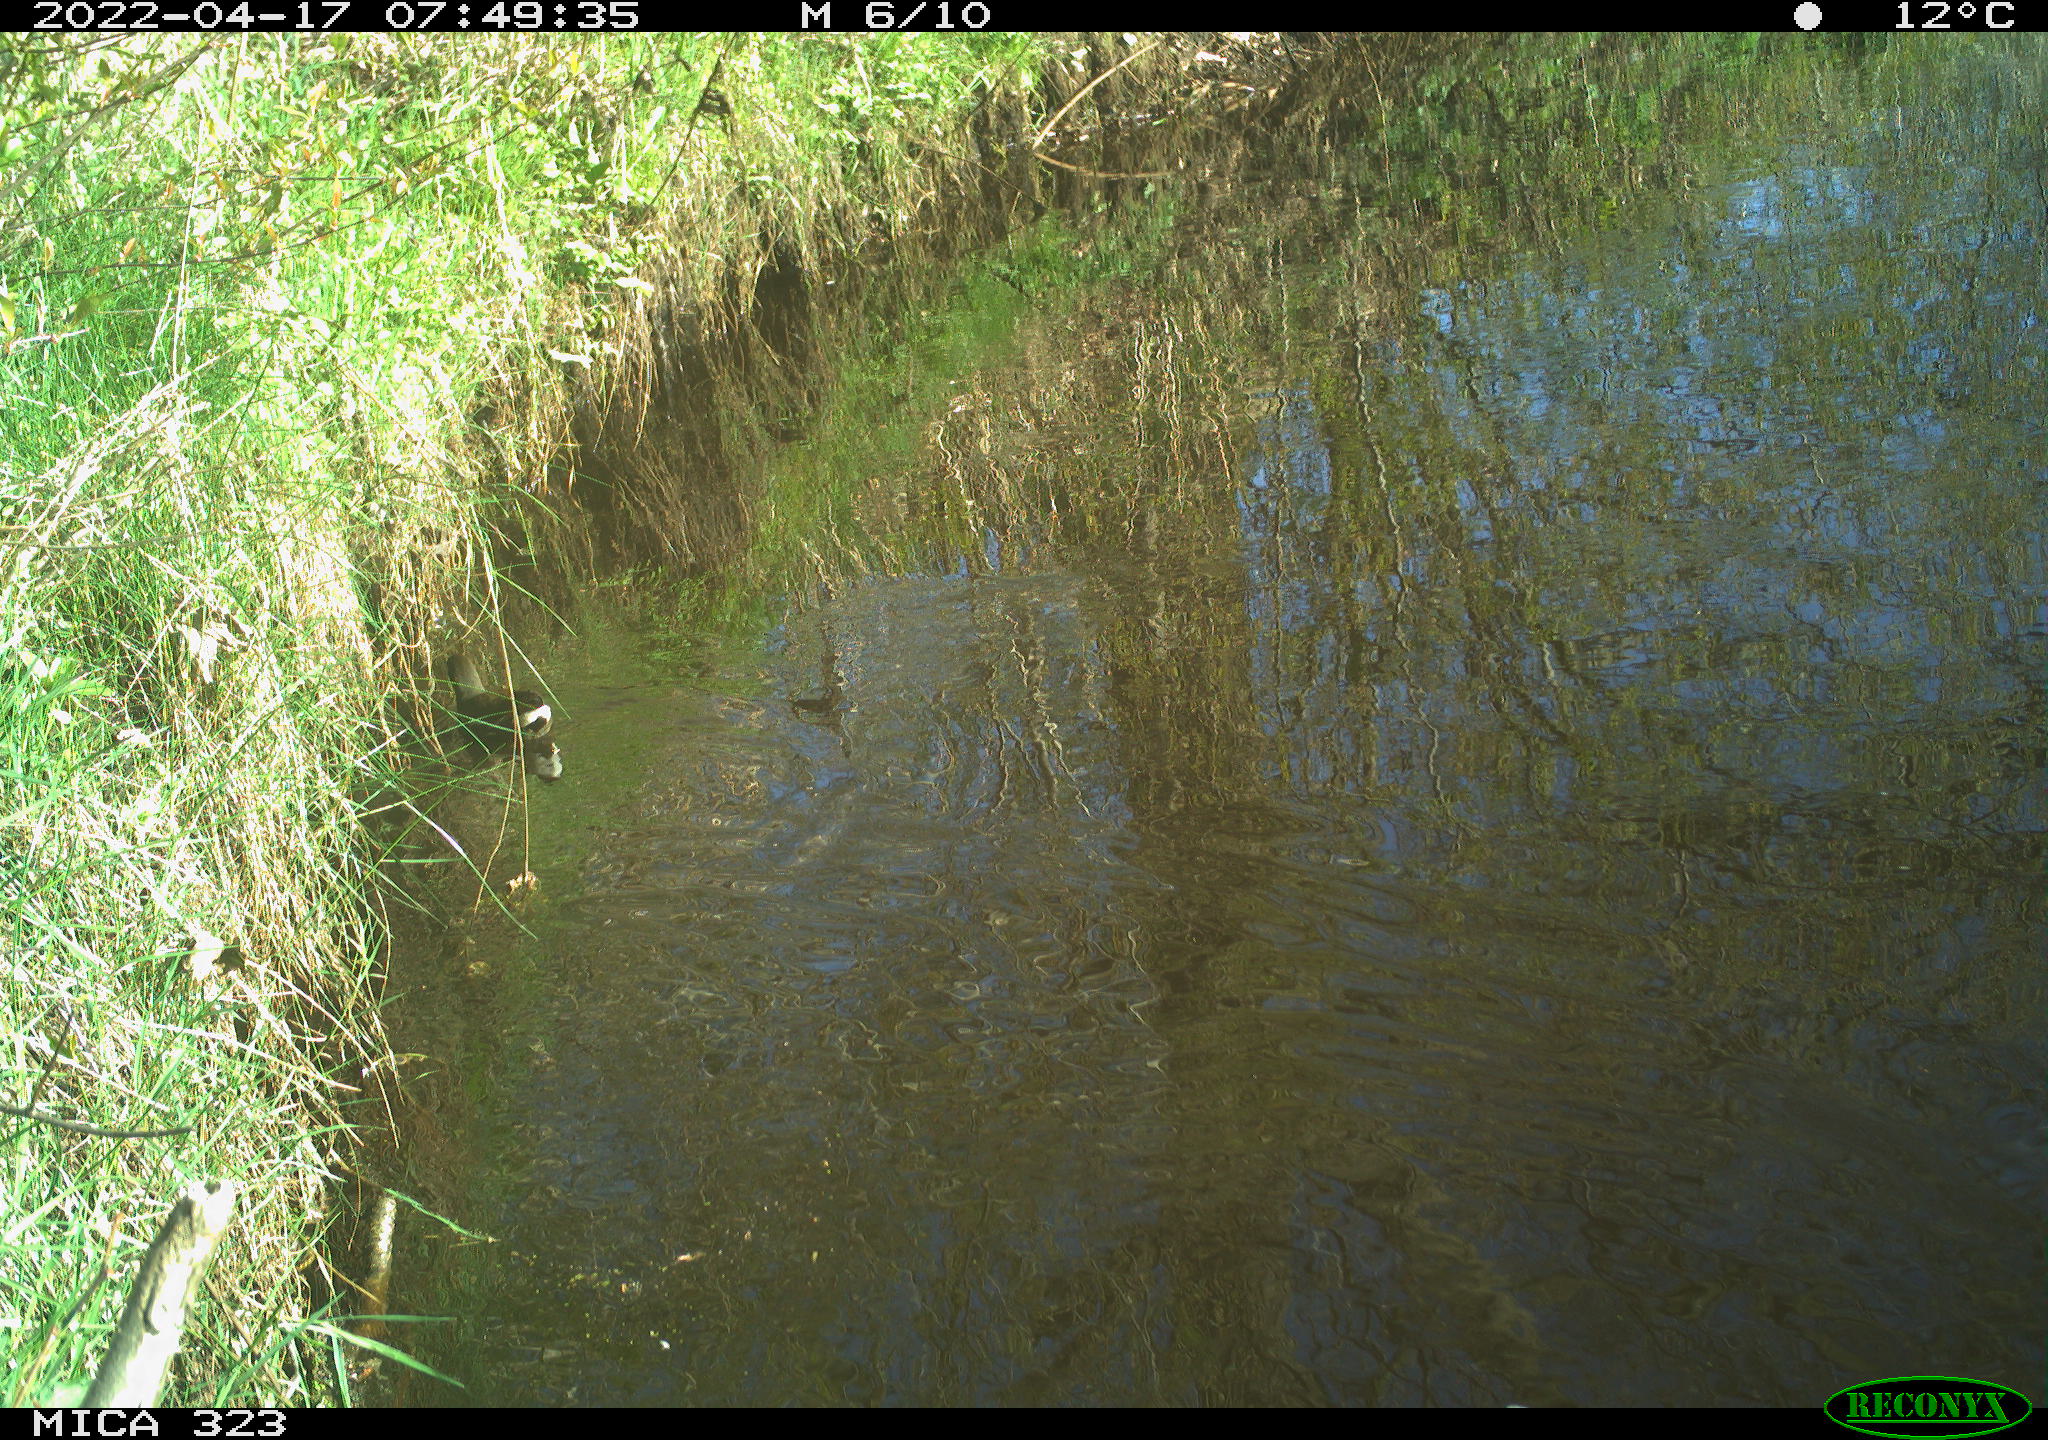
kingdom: Animalia
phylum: Chordata
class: Aves
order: Gruiformes
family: Rallidae
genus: Gallinula
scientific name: Gallinula chloropus
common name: Common moorhen
